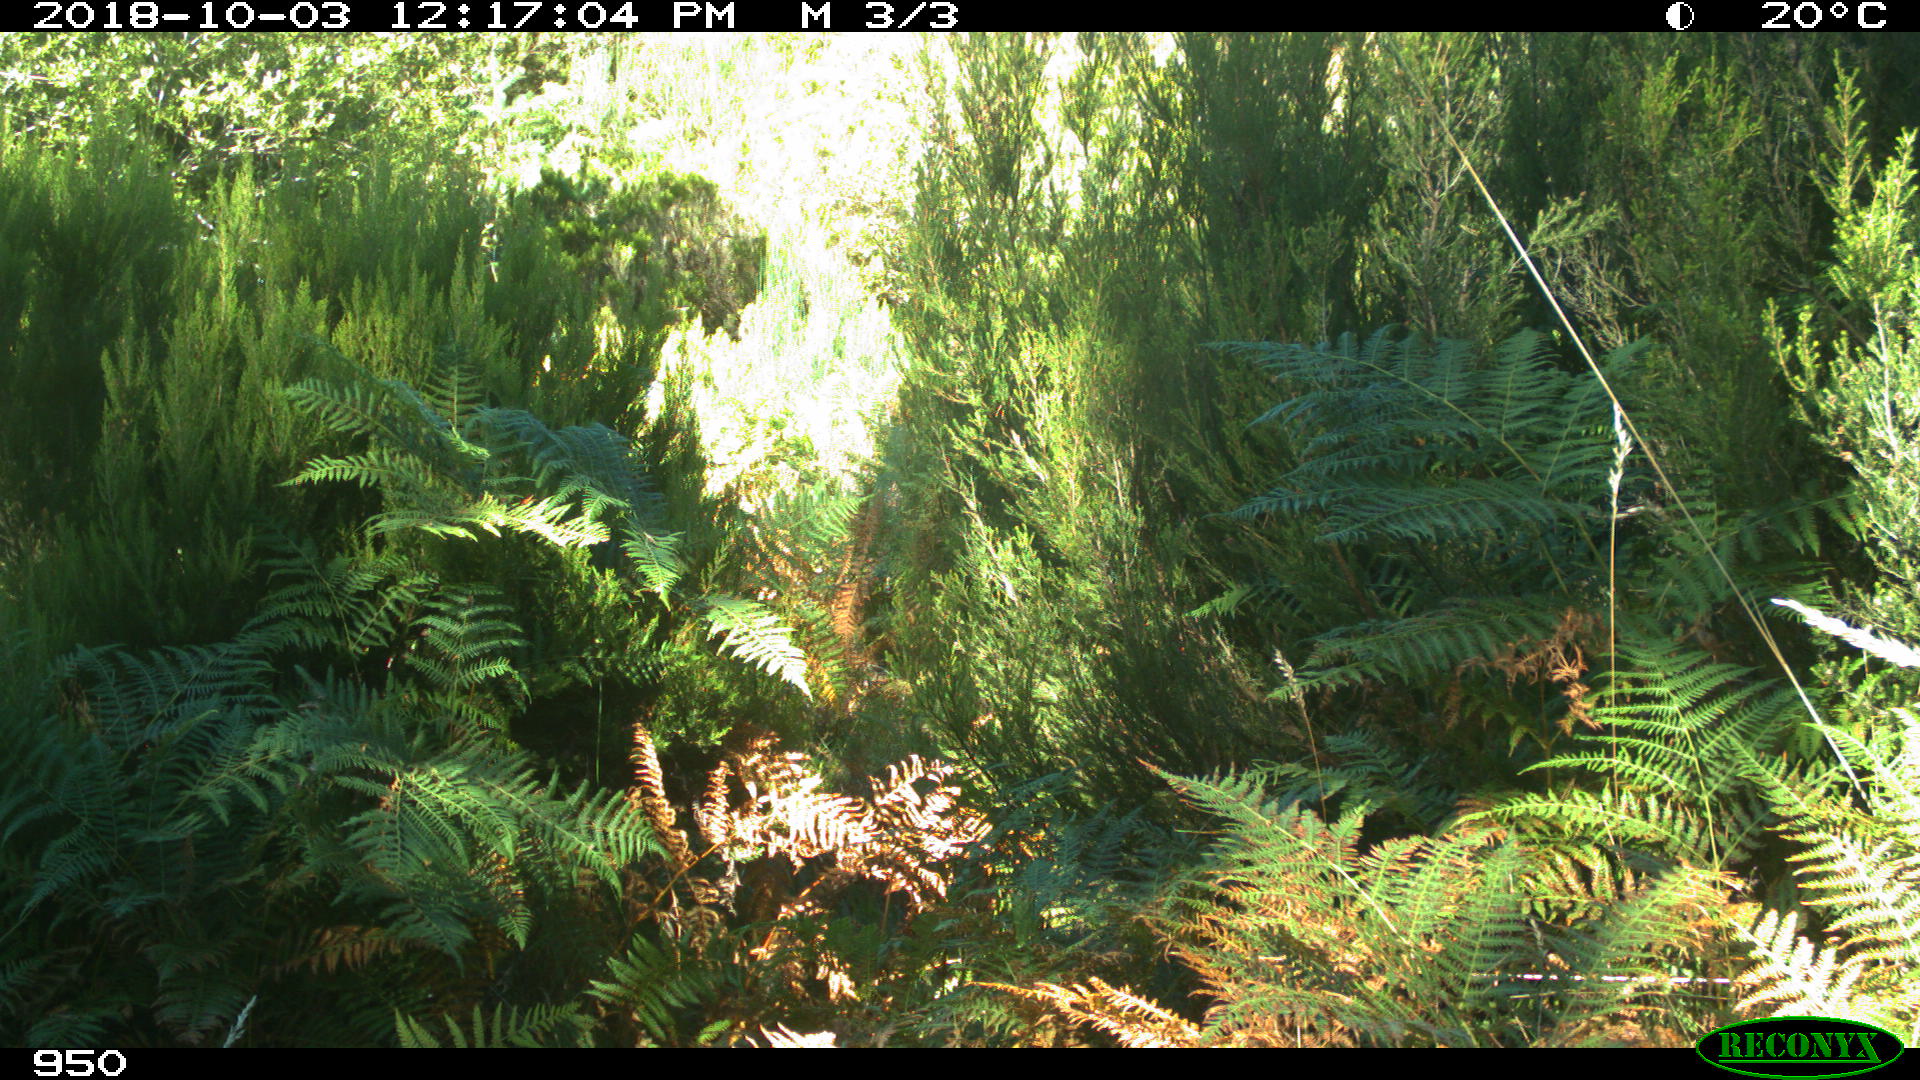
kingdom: Animalia
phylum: Chordata
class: Mammalia
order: Perissodactyla
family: Equidae
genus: Equus
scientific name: Equus caballus
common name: Horse
